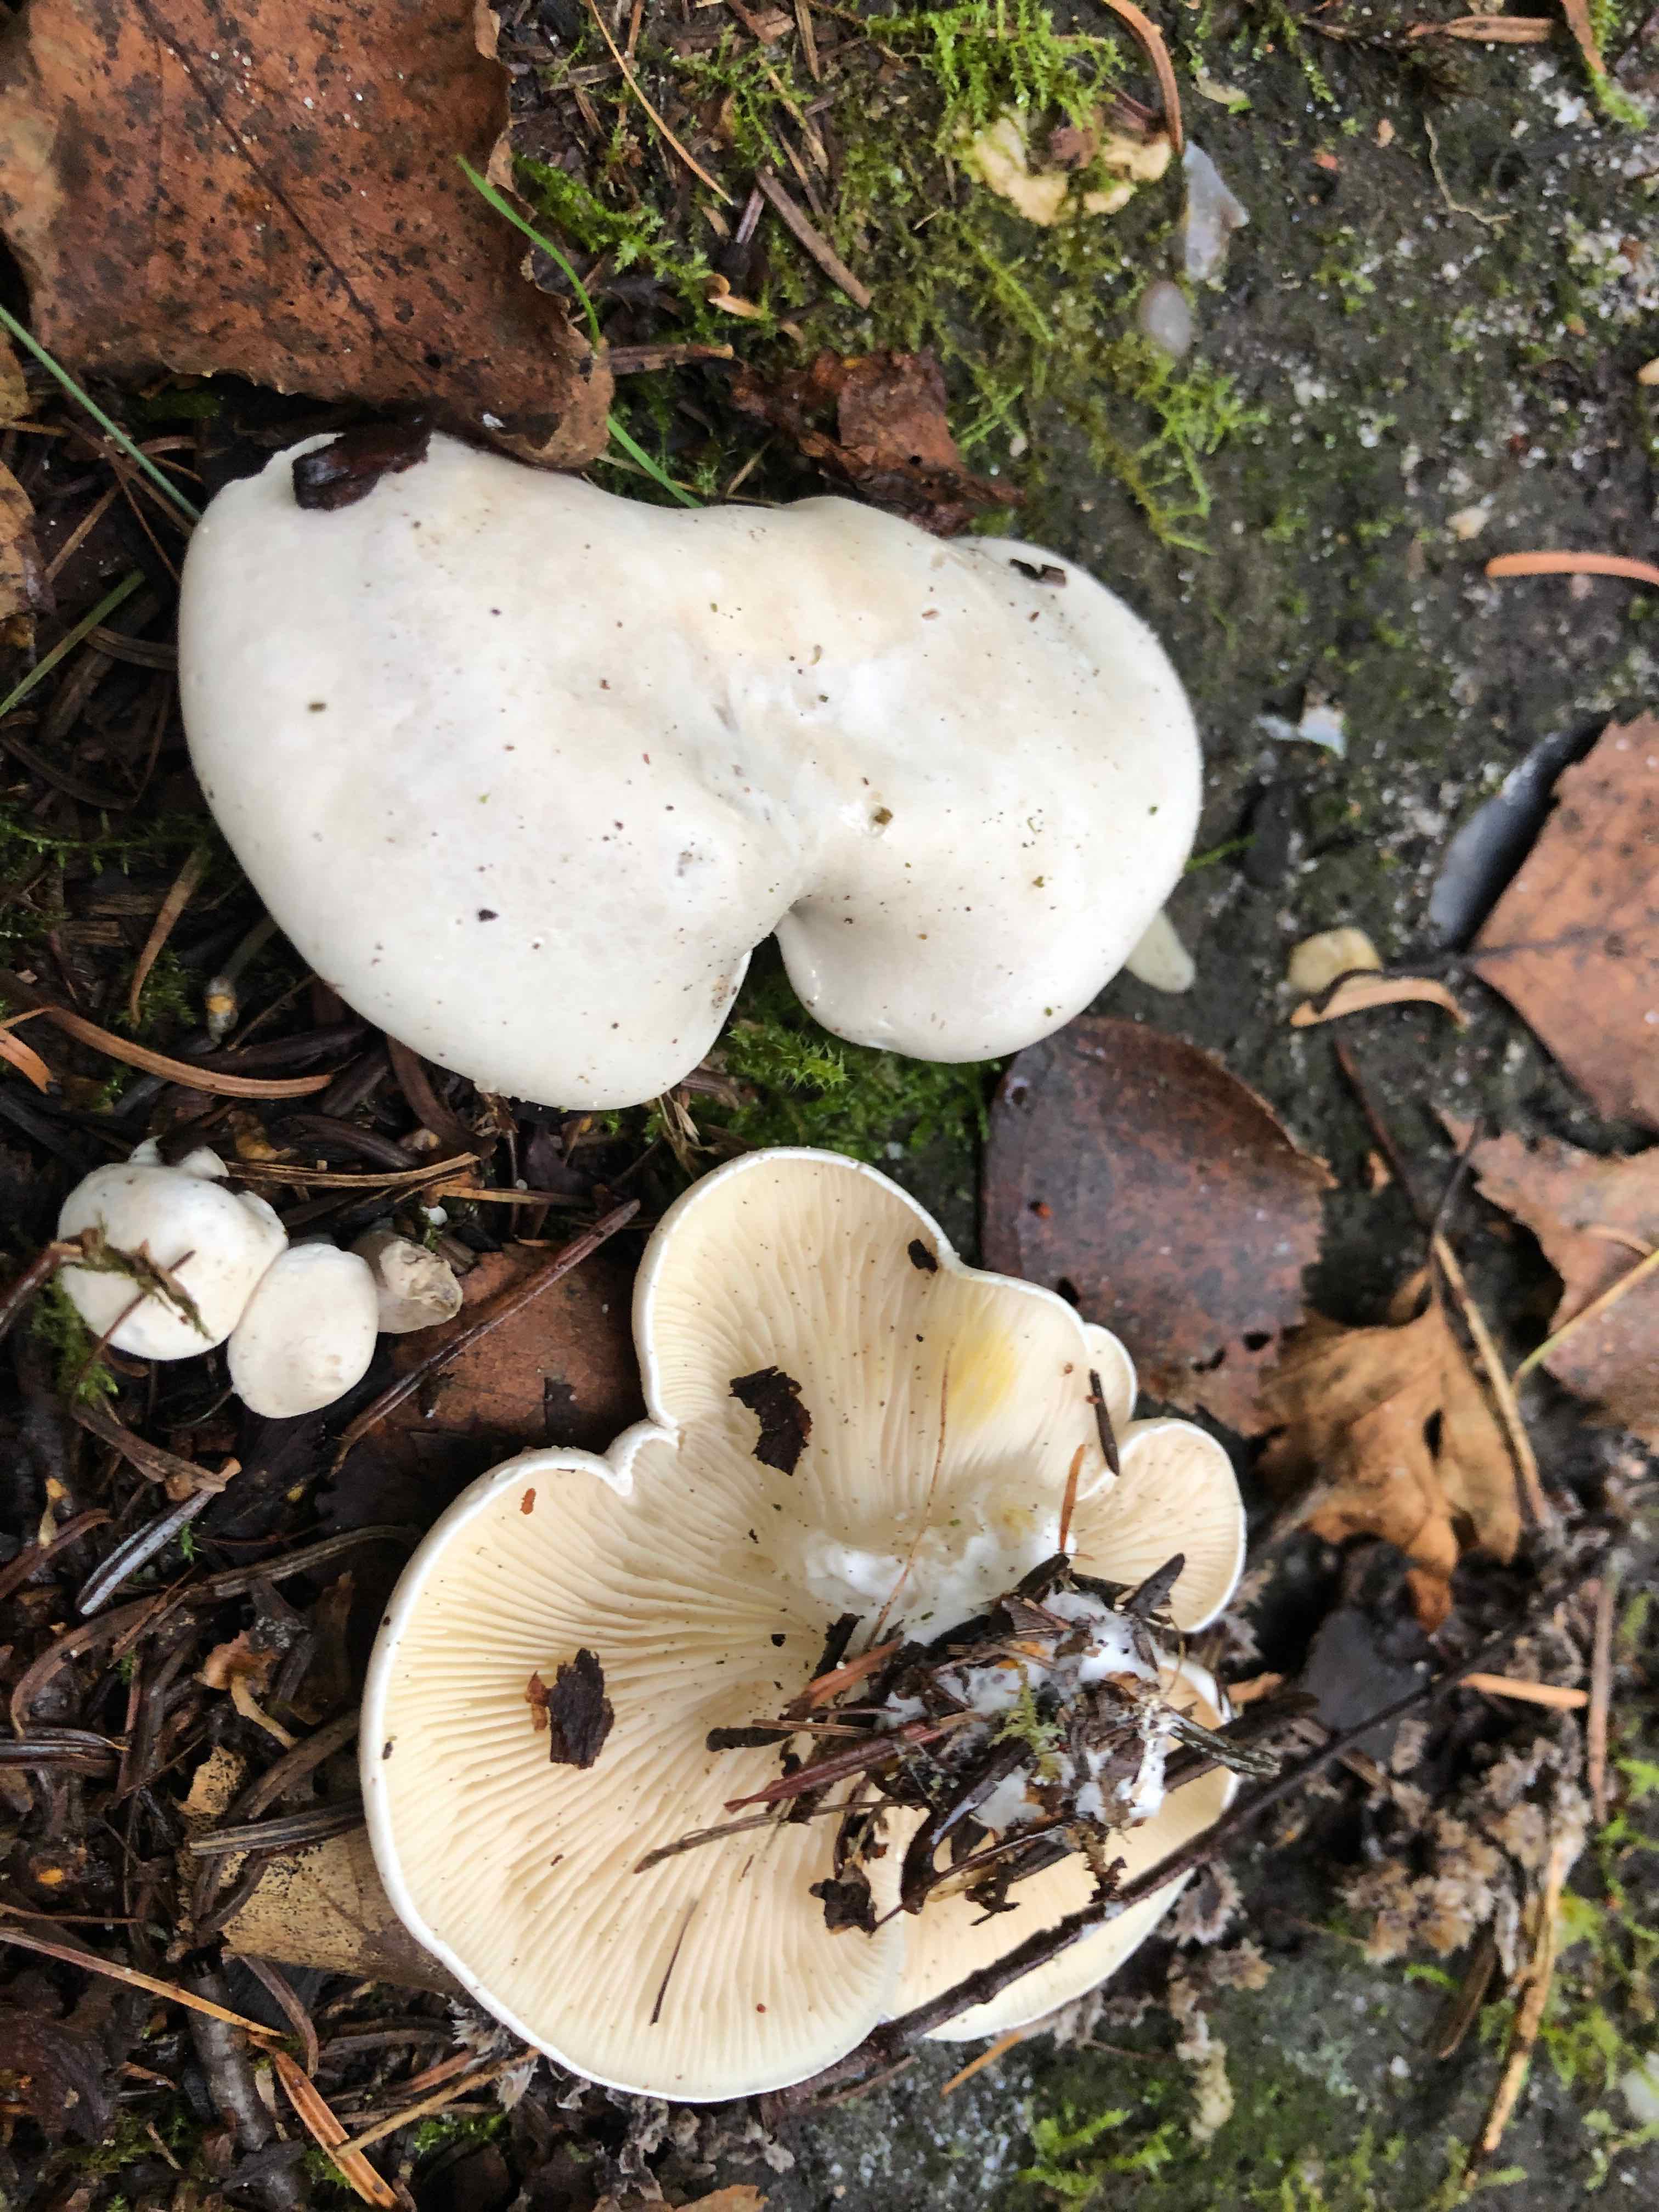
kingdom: Fungi
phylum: Basidiomycota
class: Agaricomycetes
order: Agaricales
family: Entolomataceae
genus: Clitopilus
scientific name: Clitopilus prunulus
